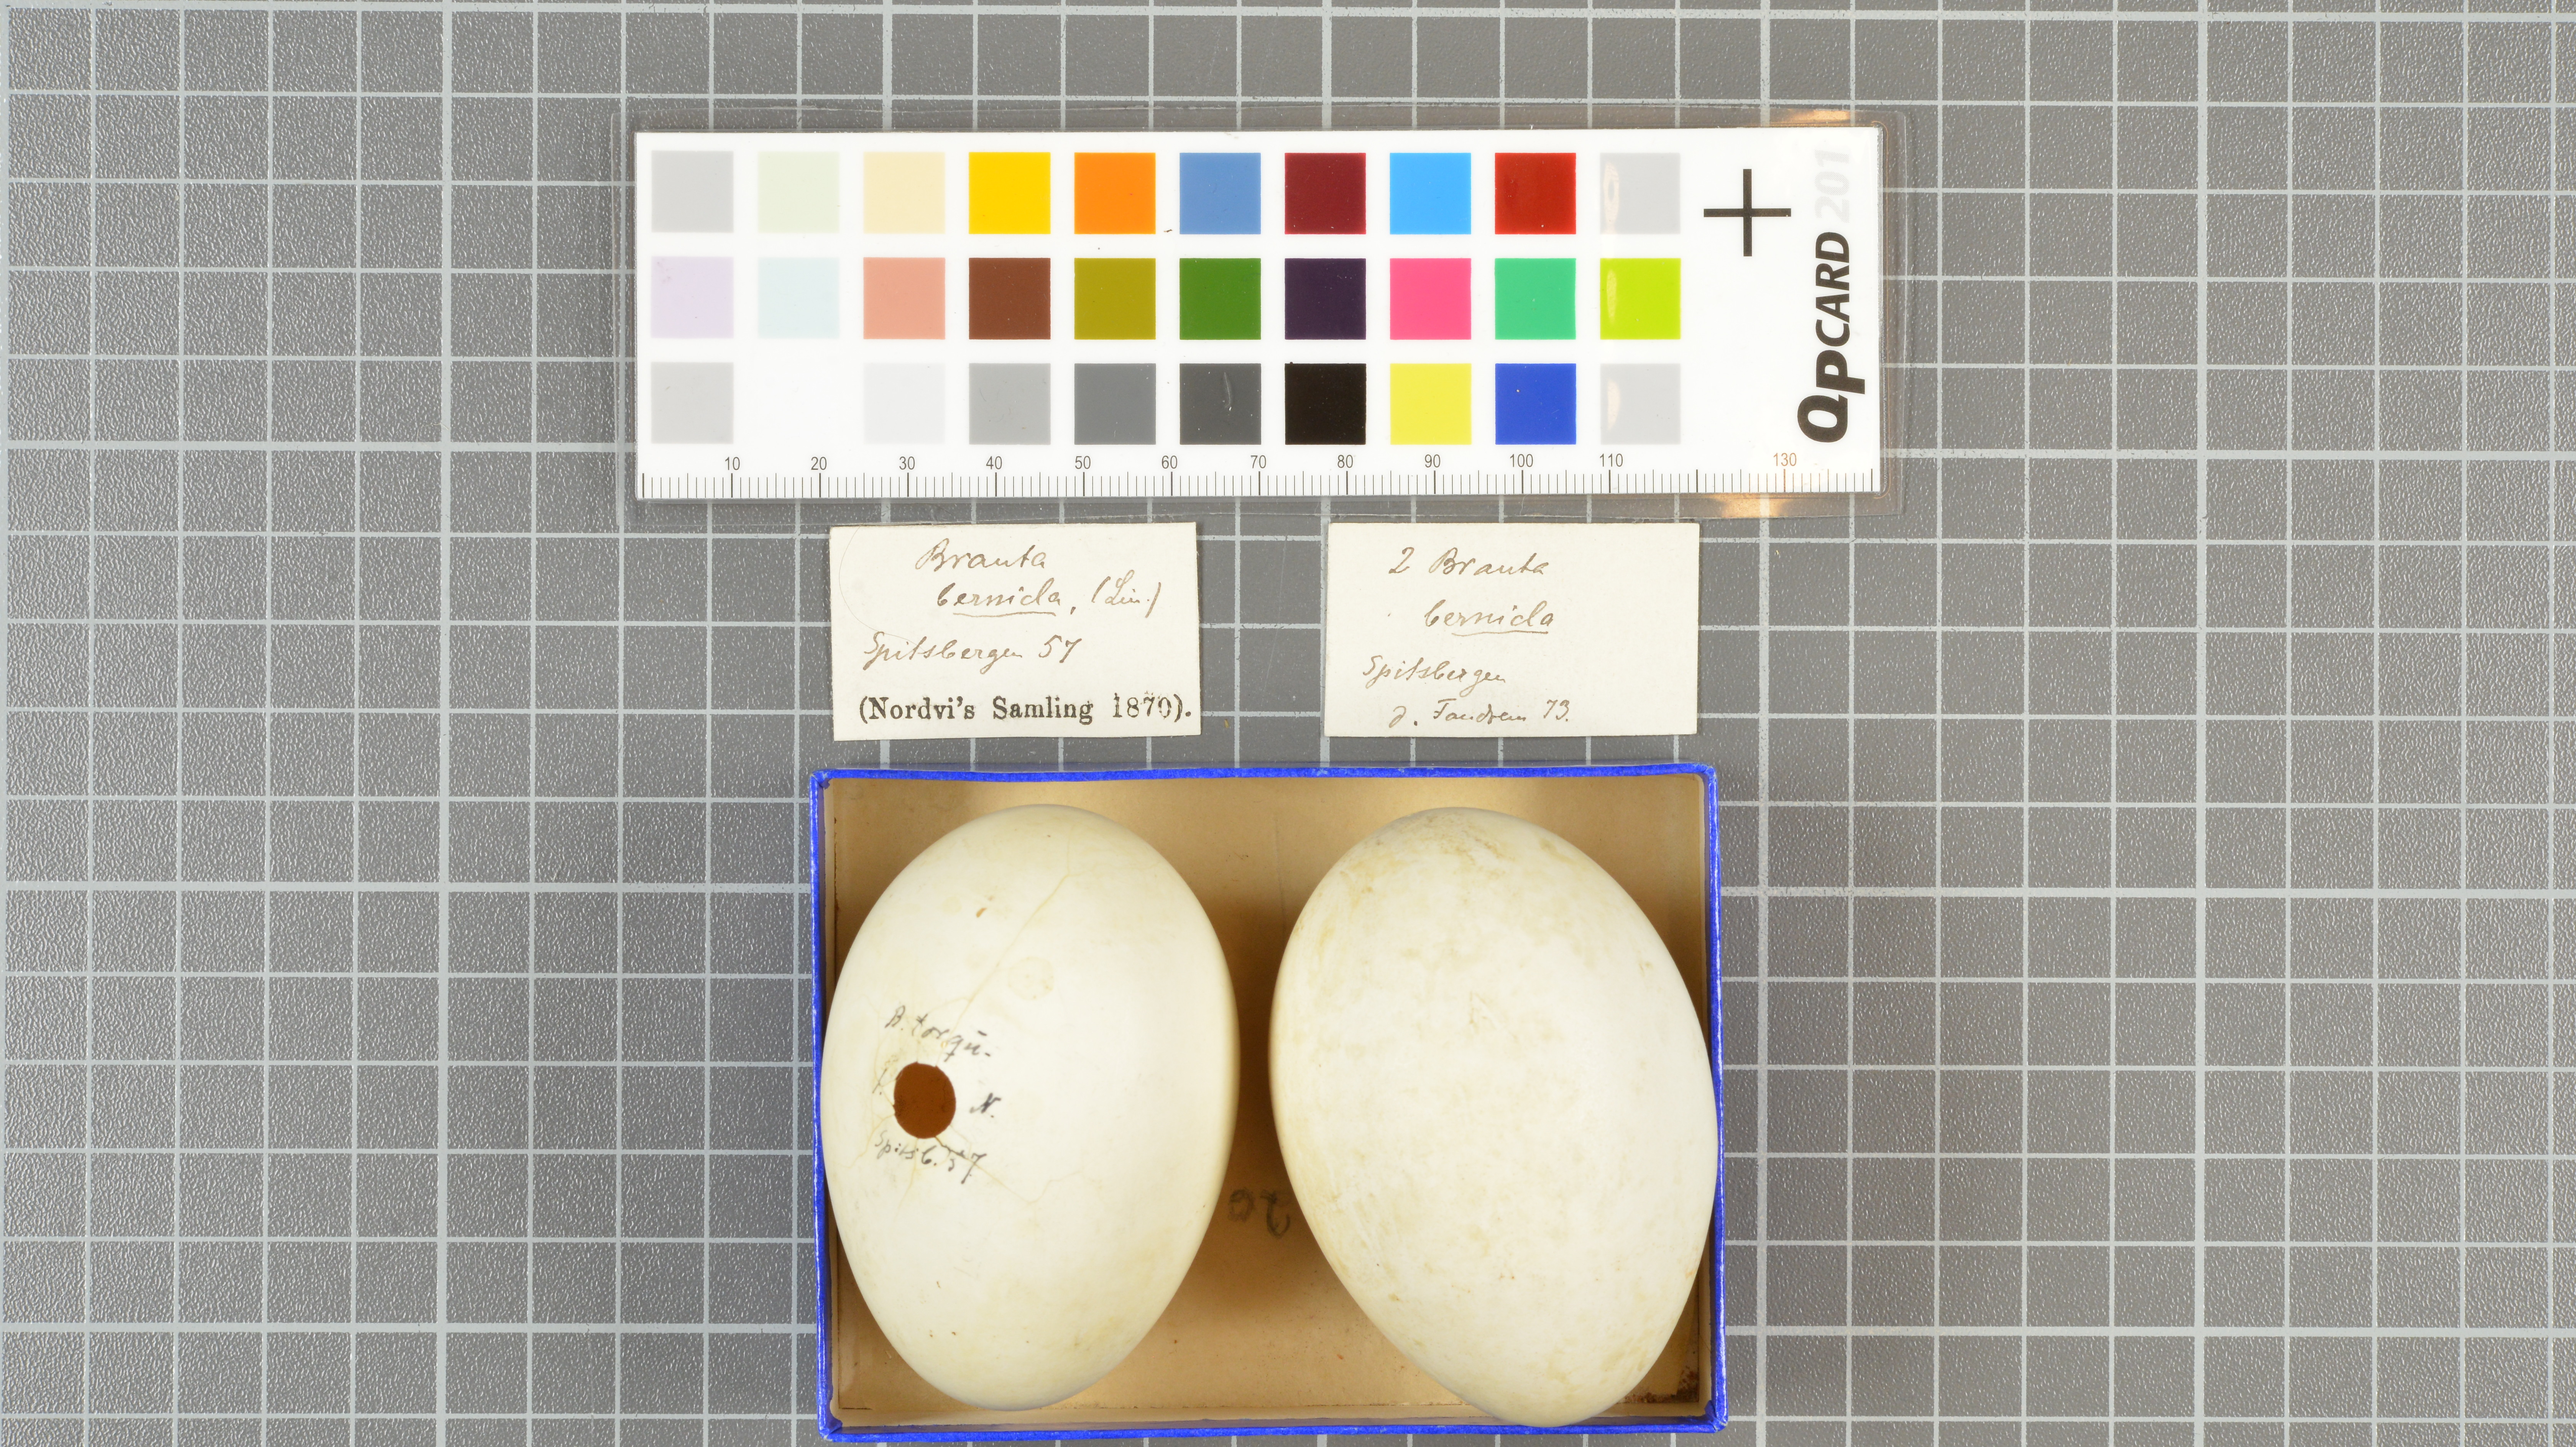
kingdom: Animalia
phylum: Chordata
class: Aves
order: Anseriformes
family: Anatidae
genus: Branta
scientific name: Branta bernicla
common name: Brant goose
